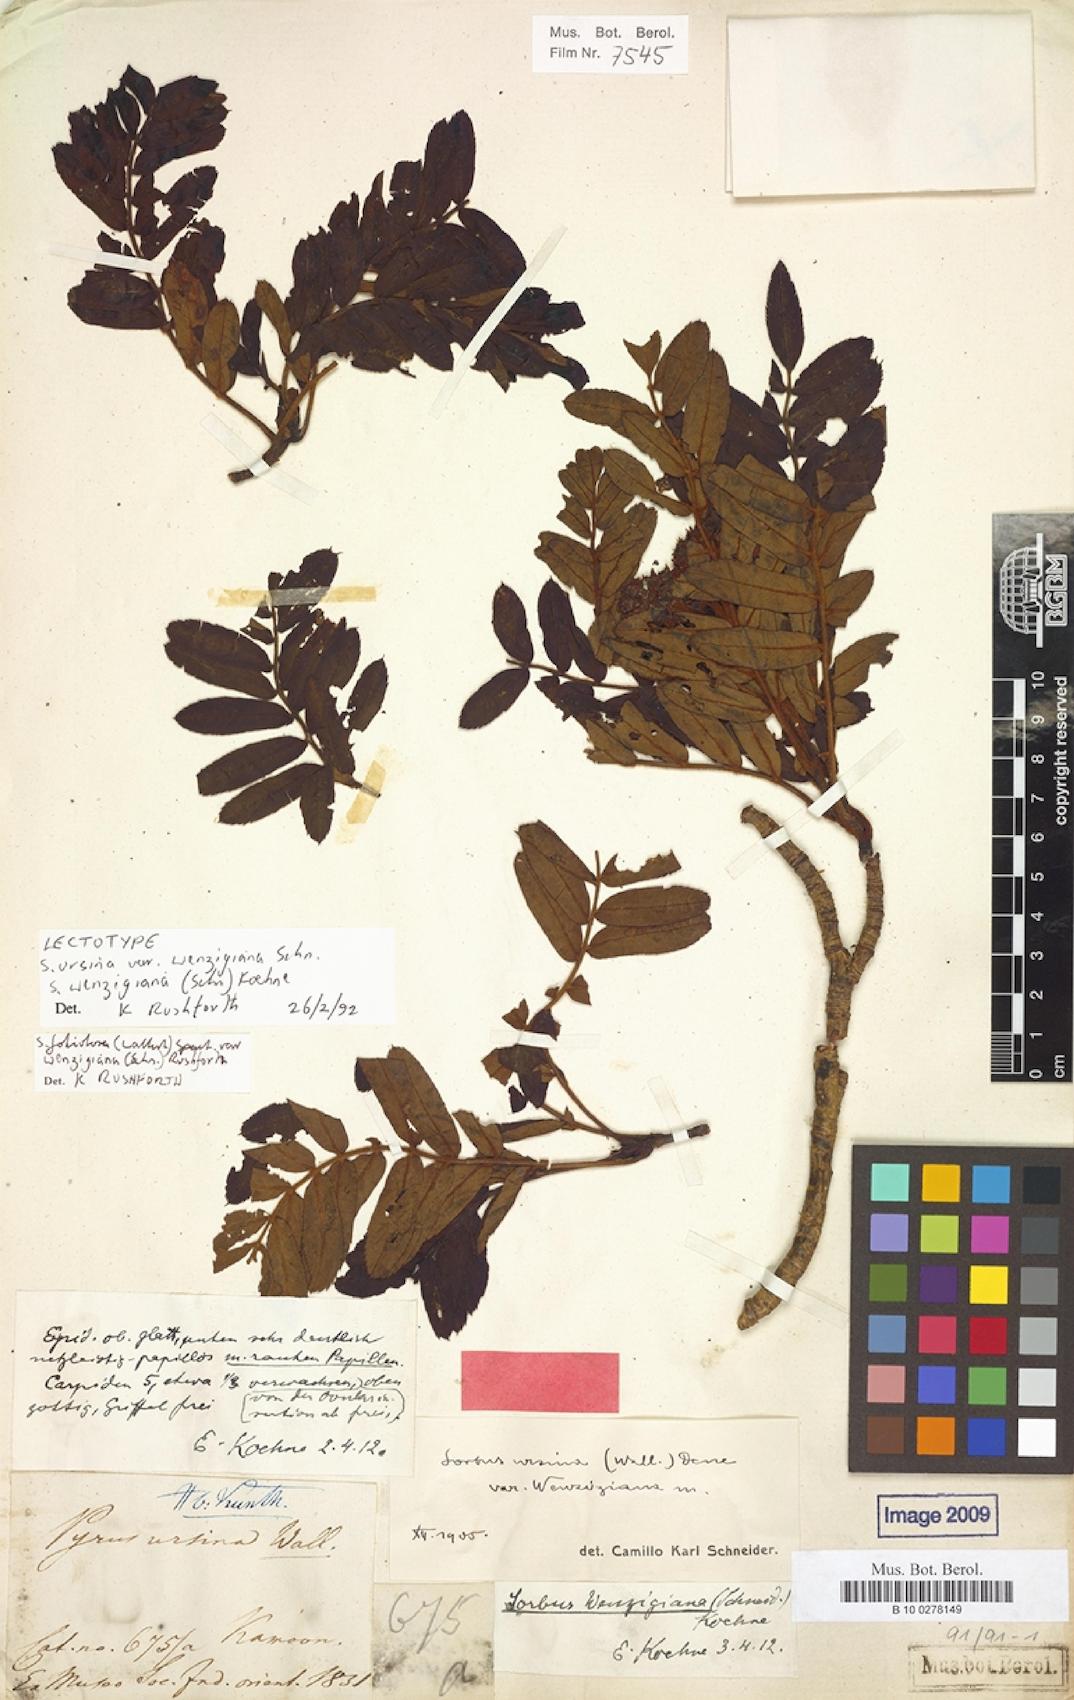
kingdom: Plantae
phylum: Tracheophyta
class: Magnoliopsida
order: Rosales
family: Rosaceae
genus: Sorbus
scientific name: Sorbus ursina
